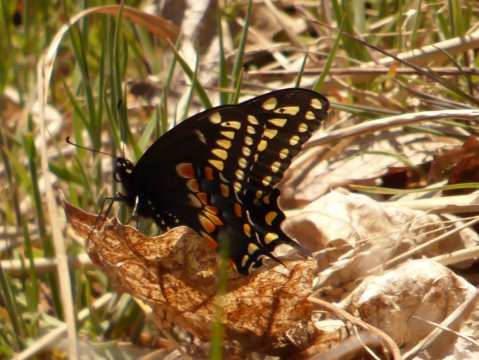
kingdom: Animalia
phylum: Arthropoda
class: Insecta
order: Lepidoptera
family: Papilionidae
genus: Papilio
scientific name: Papilio polyxenes
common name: Black Swallowtail
